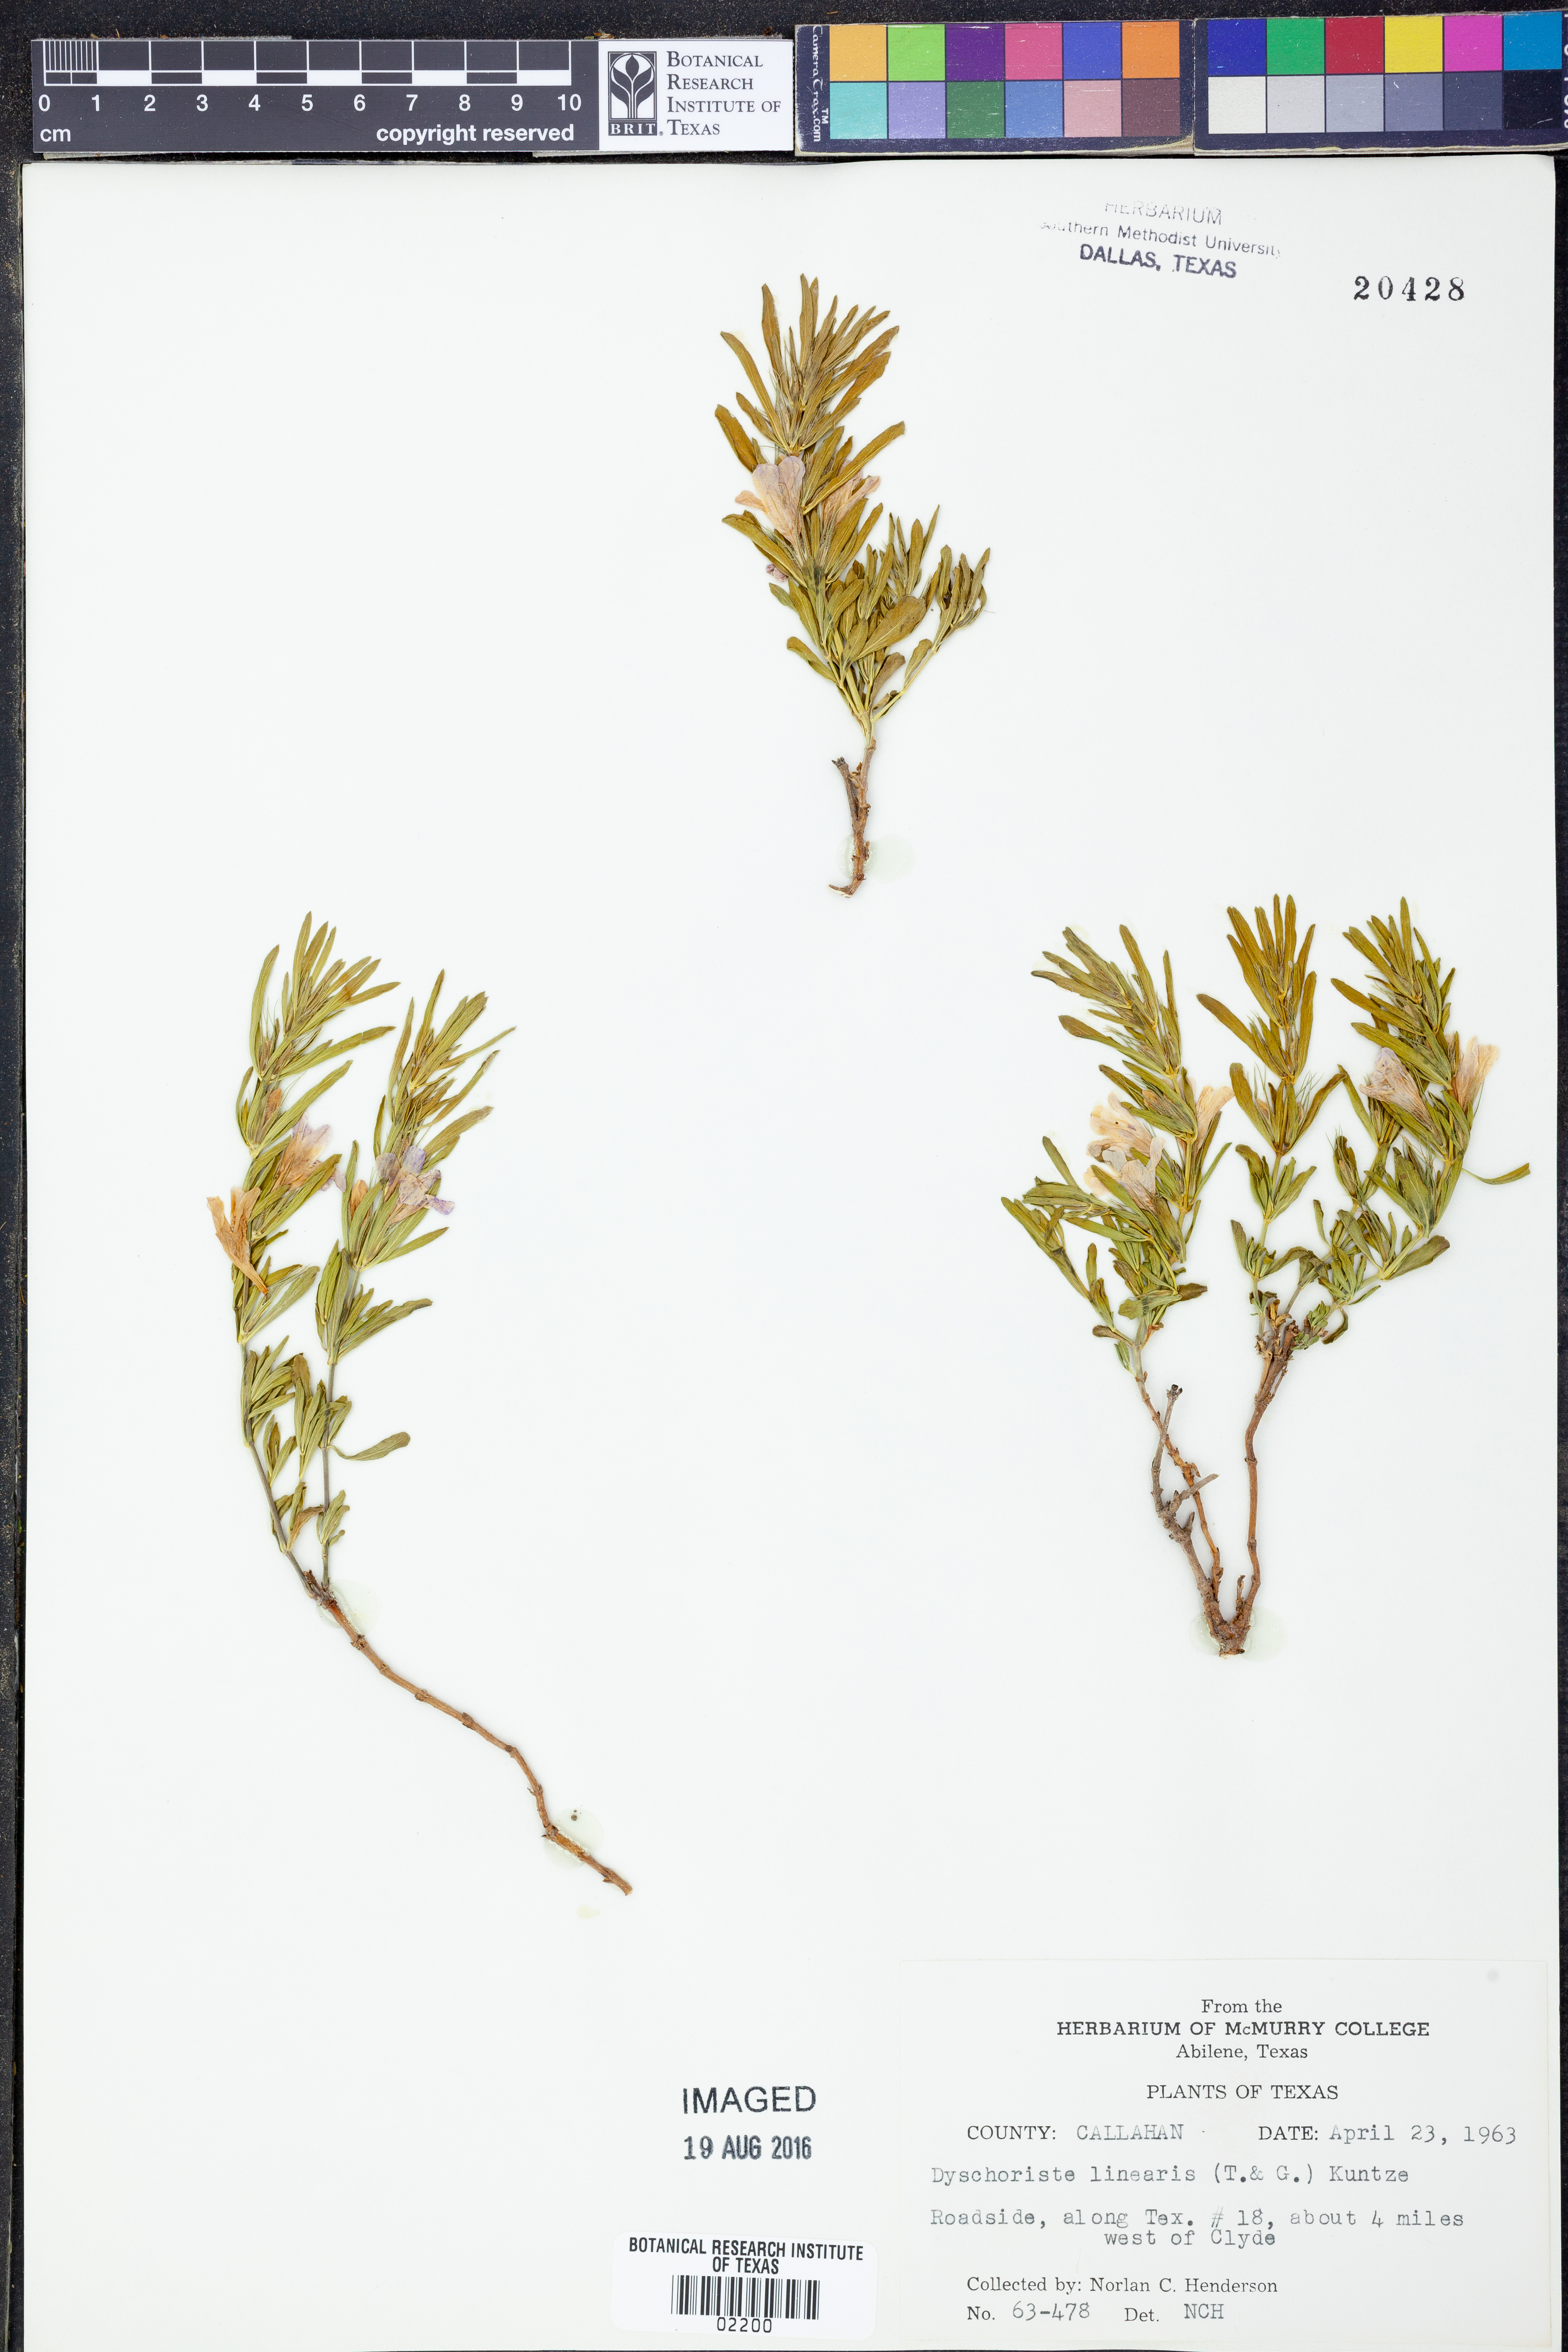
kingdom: Plantae
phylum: Tracheophyta
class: Magnoliopsida
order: Lamiales
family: Acanthaceae
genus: Dyschoriste
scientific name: Dyschoriste linearis
